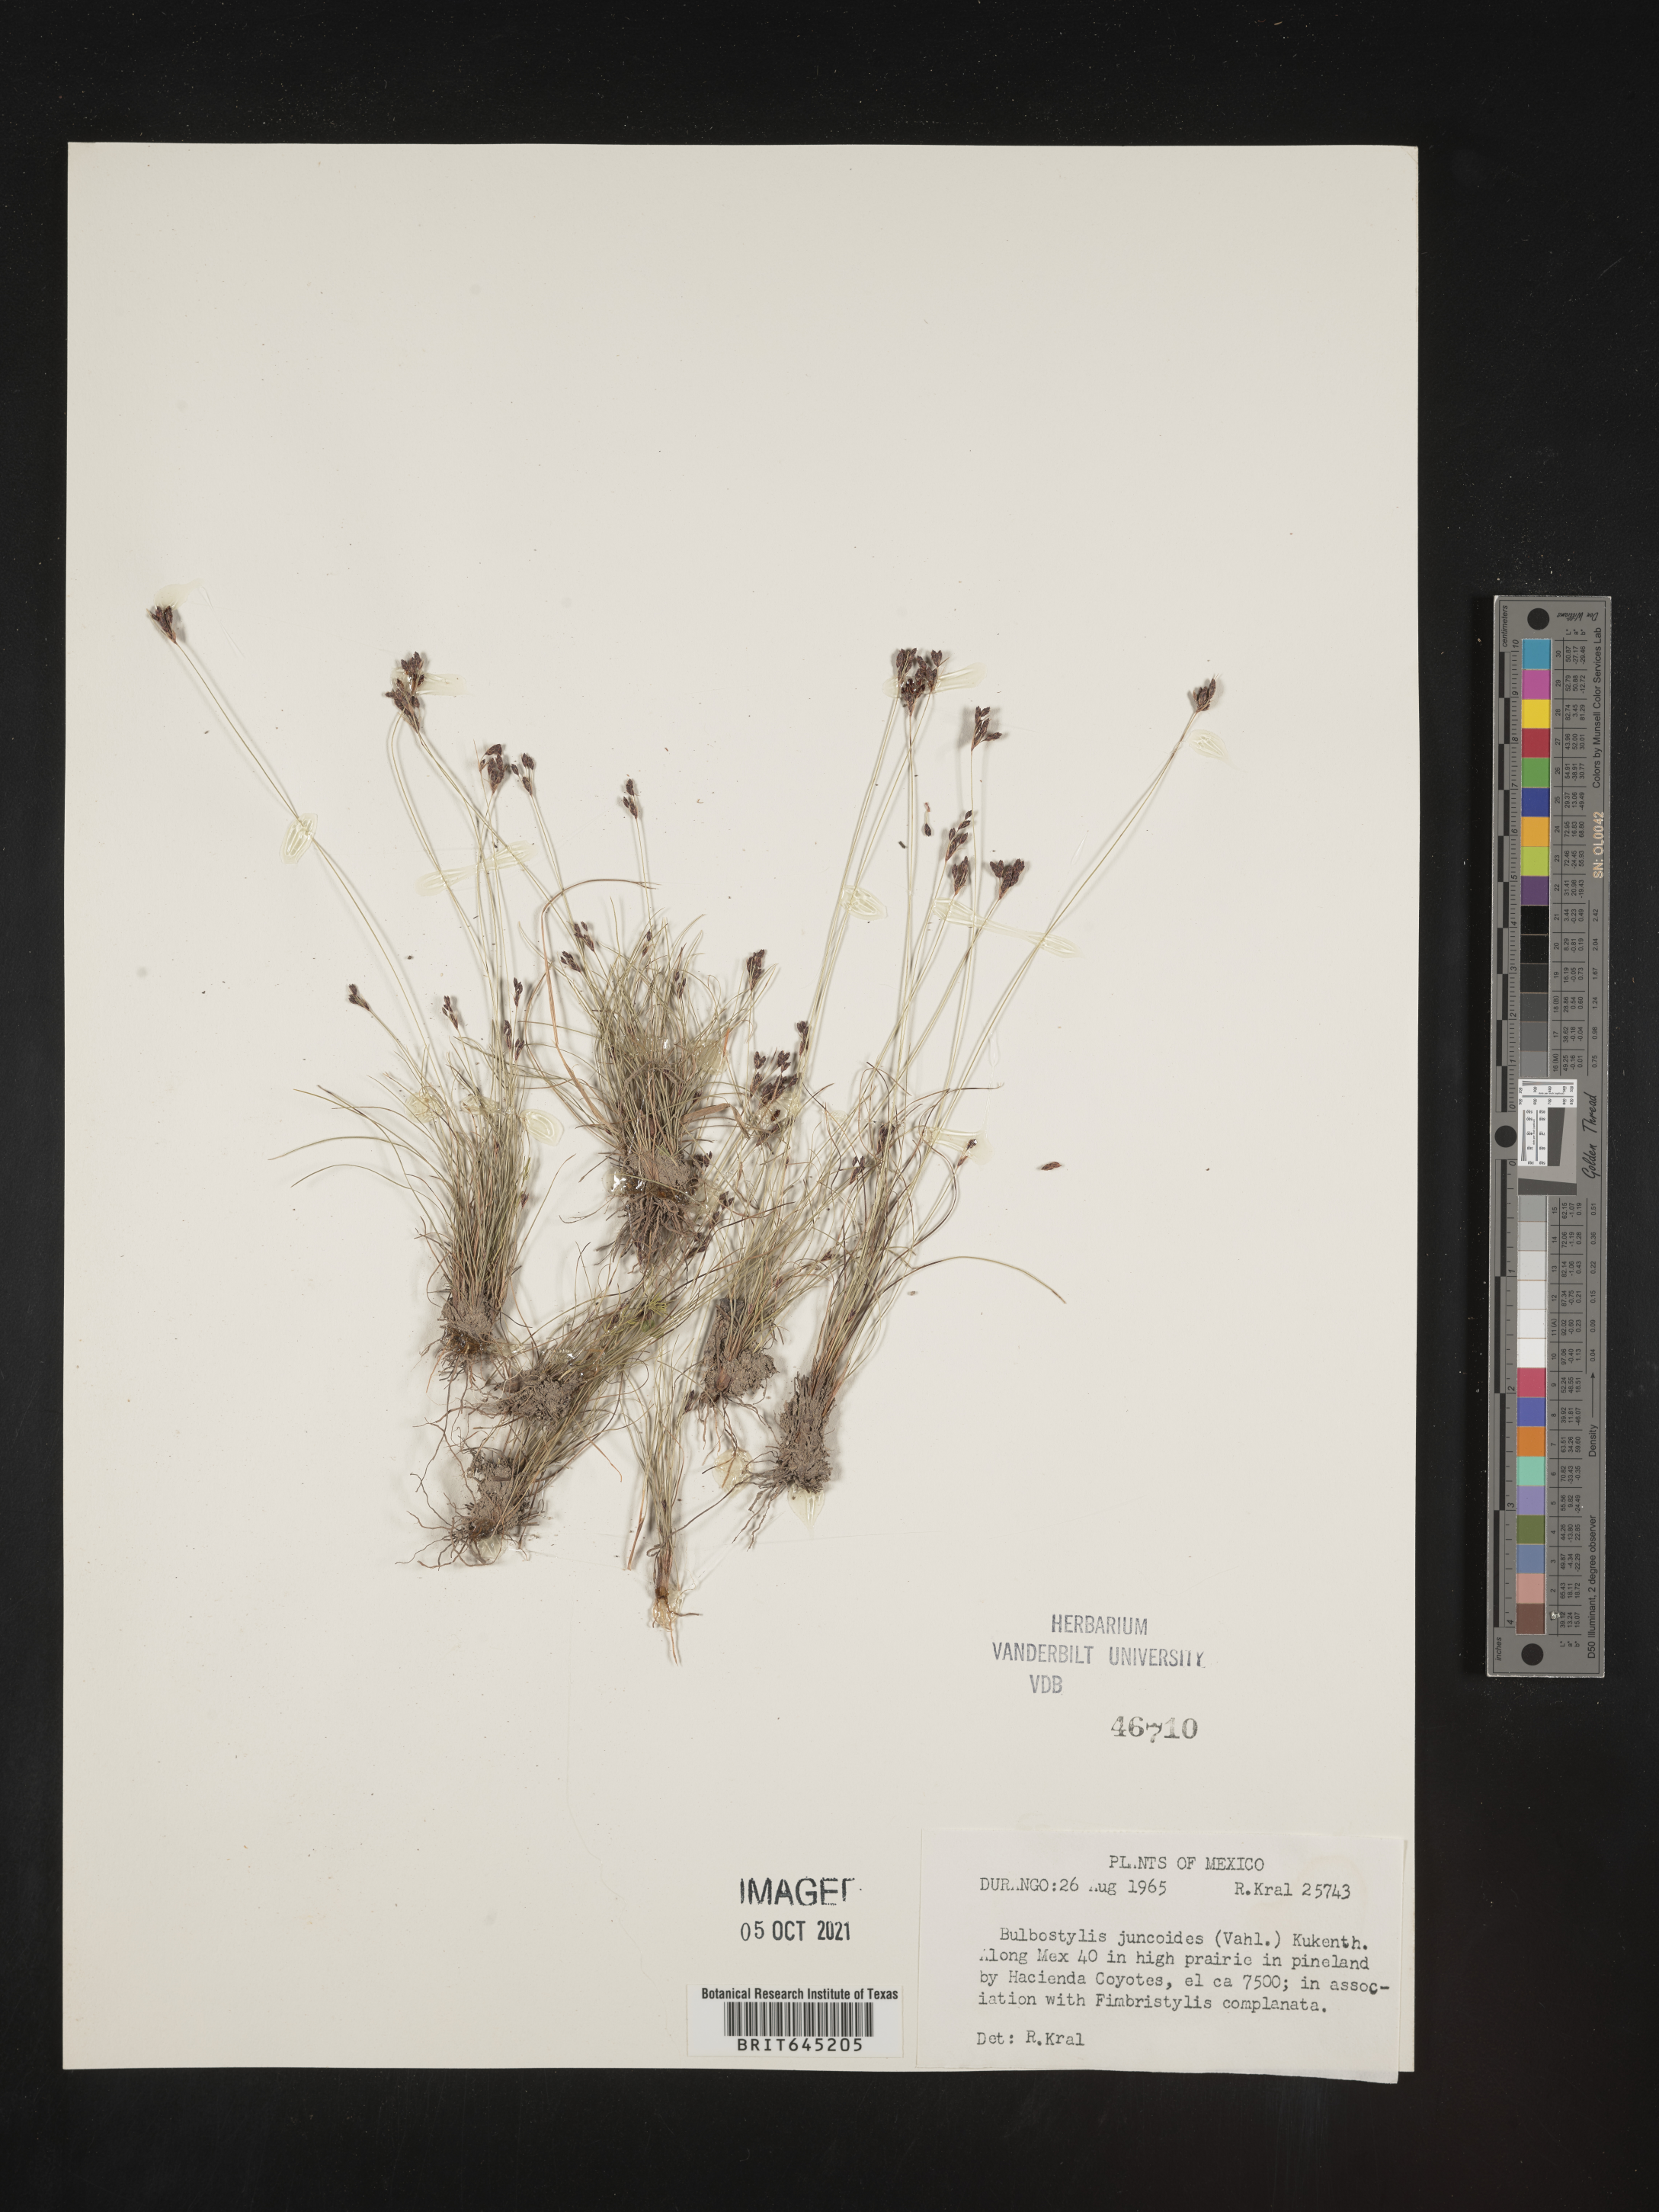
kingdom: Plantae
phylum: Tracheophyta
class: Liliopsida
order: Poales
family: Cyperaceae
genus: Bulbostylis
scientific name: Bulbostylis juncoides
